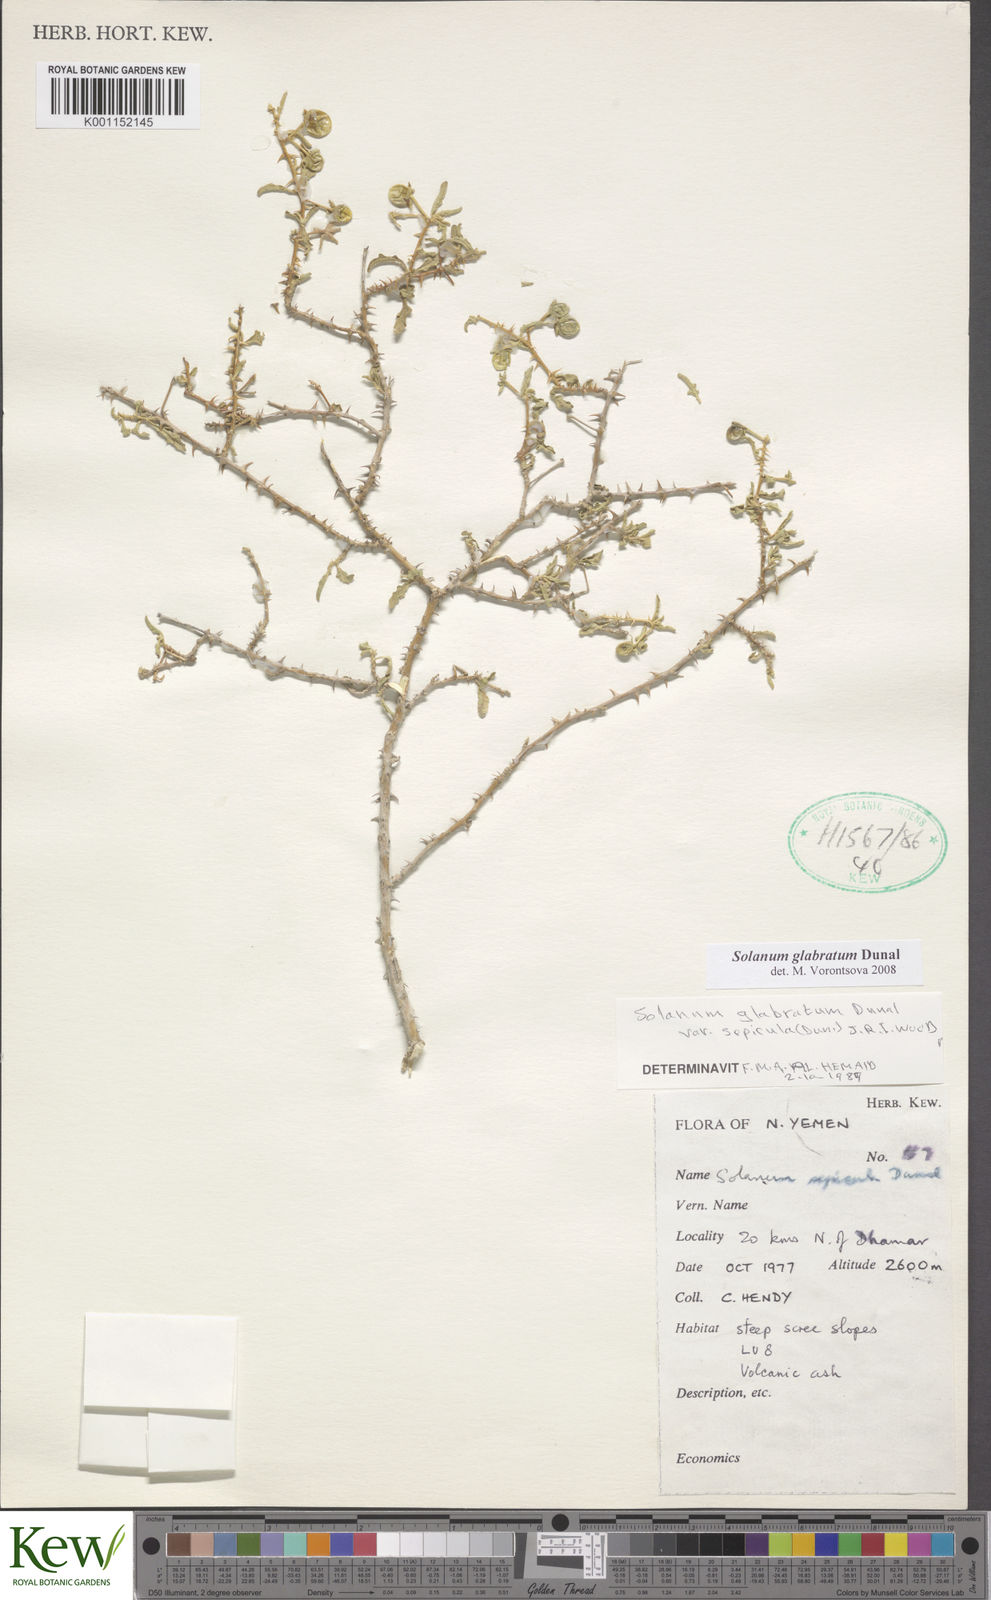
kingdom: Plantae
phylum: Tracheophyta
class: Magnoliopsida
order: Solanales
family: Solanaceae
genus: Solanum
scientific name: Solanum glabratum
